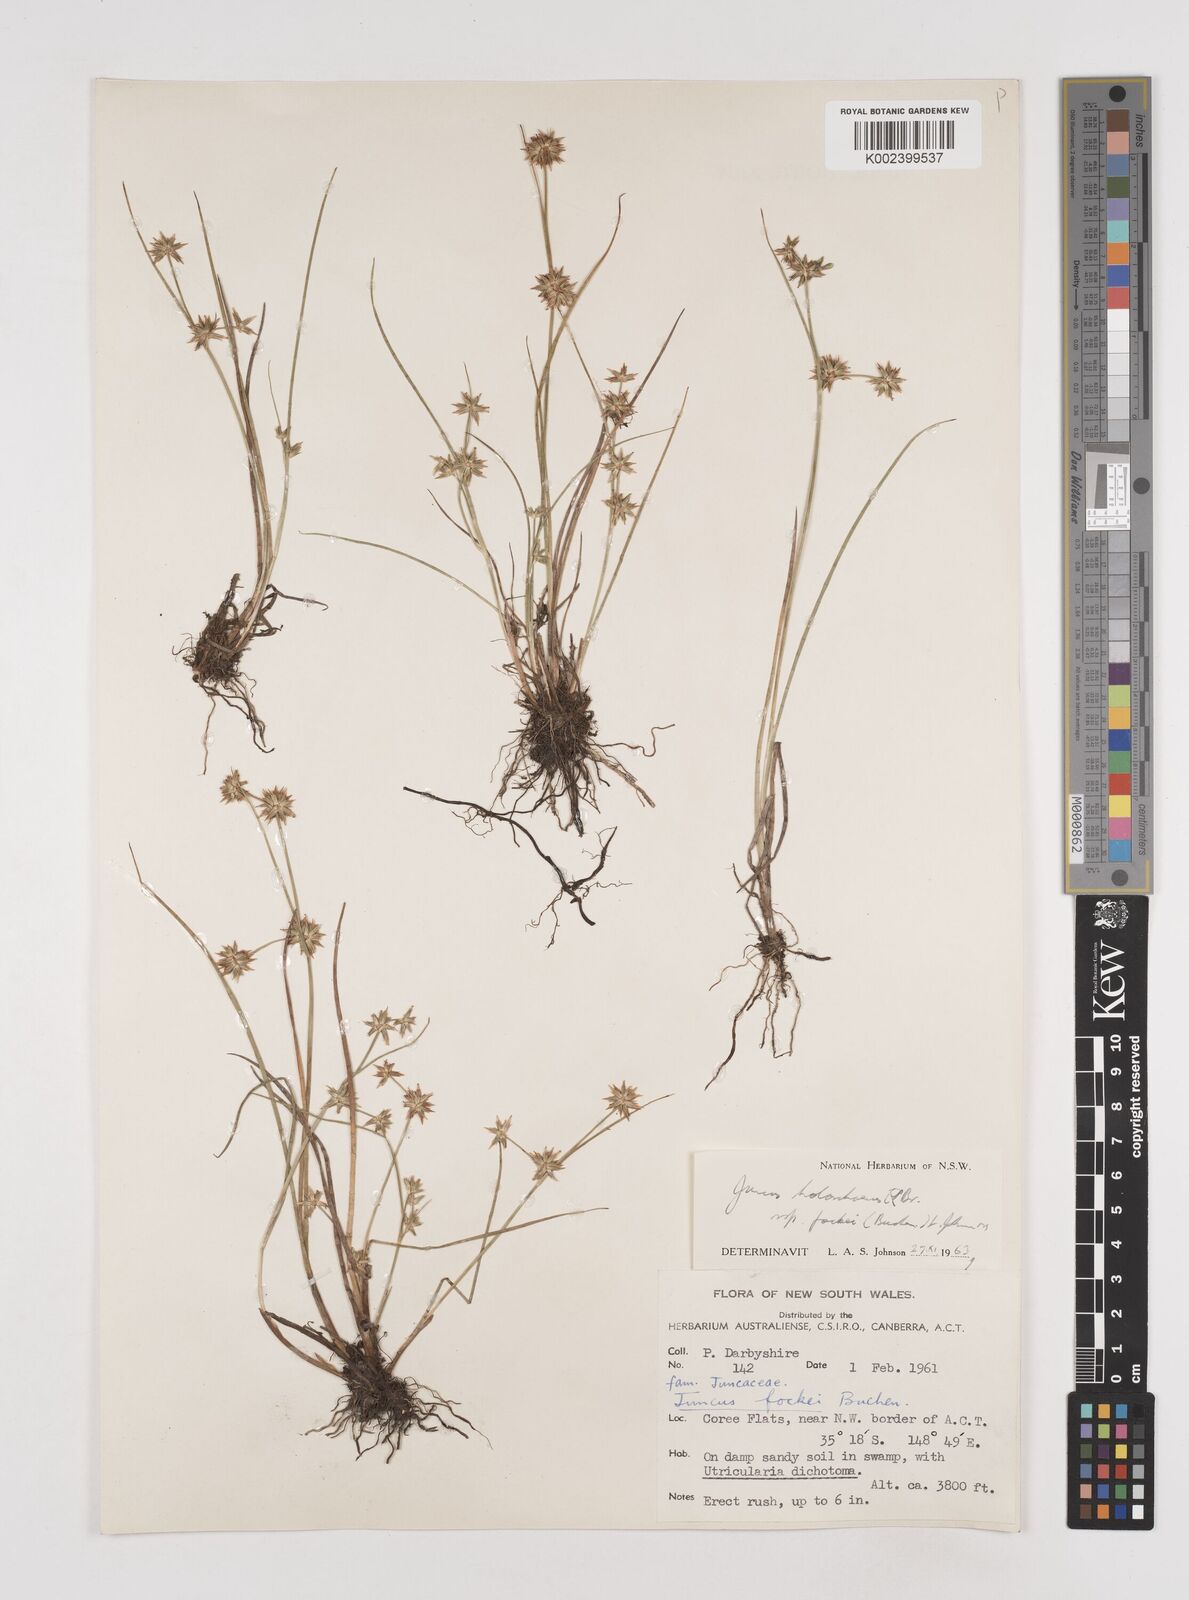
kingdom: Plantae
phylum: Tracheophyta
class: Liliopsida
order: Poales
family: Juncaceae
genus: Juncus
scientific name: Juncus holoschoenus
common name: Joint-leaf rush
